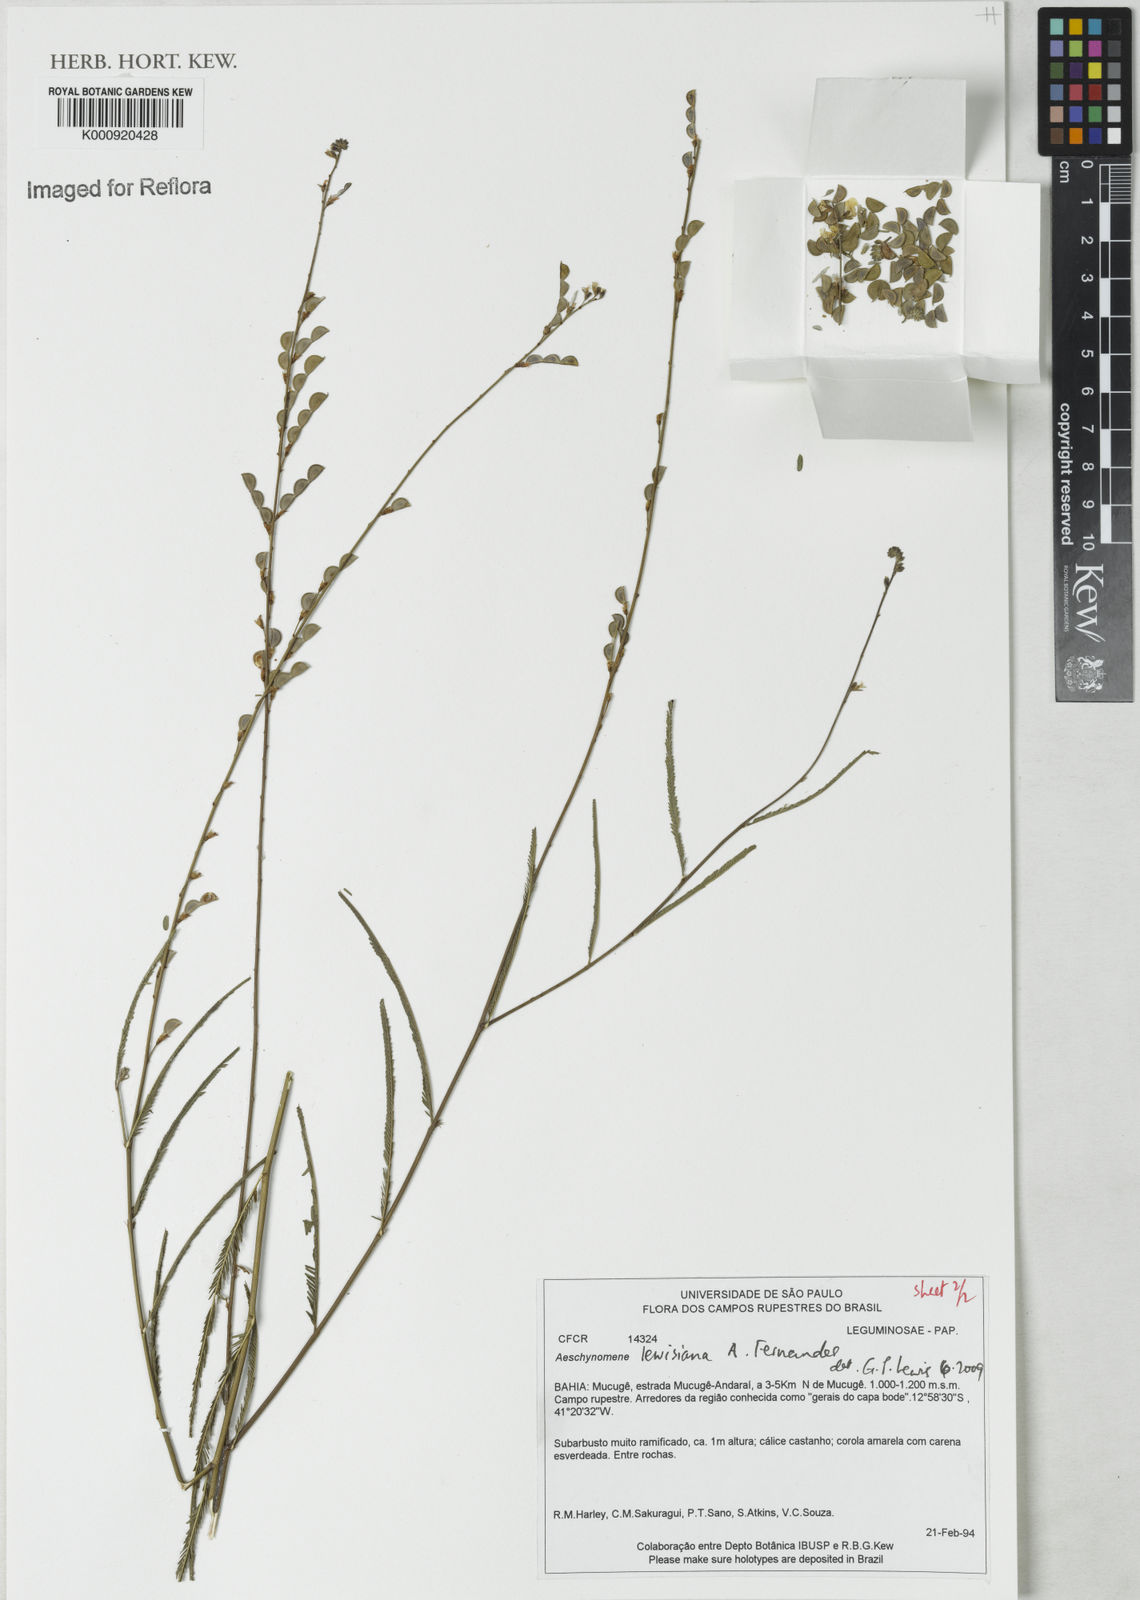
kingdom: Plantae
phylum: Tracheophyta
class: Magnoliopsida
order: Fabales
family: Fabaceae
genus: Ctenodon
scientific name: Ctenodon lewisianus
